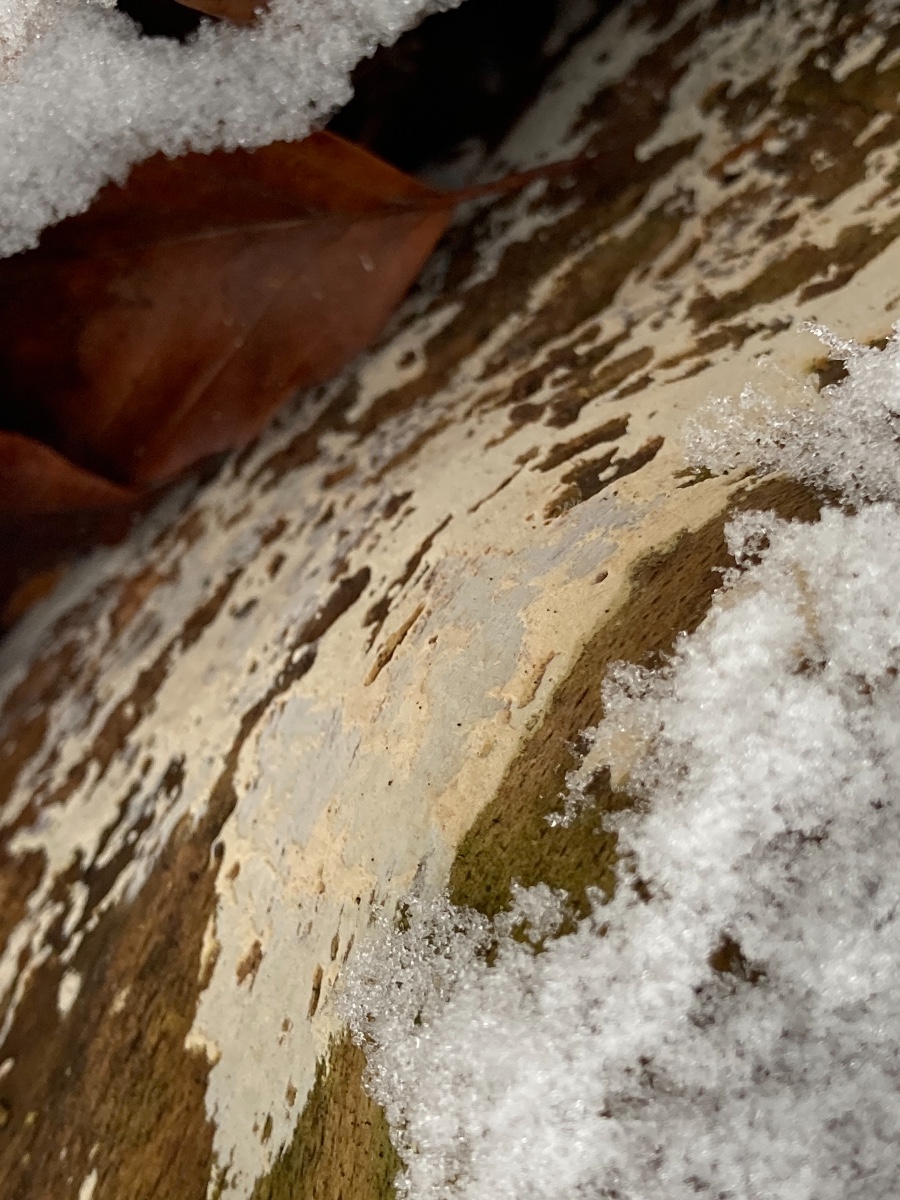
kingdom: Fungi
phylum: Basidiomycota
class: Agaricomycetes
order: Cantharellales
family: Hydnaceae
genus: Sistotrema
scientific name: Sistotrema resinicystidium
